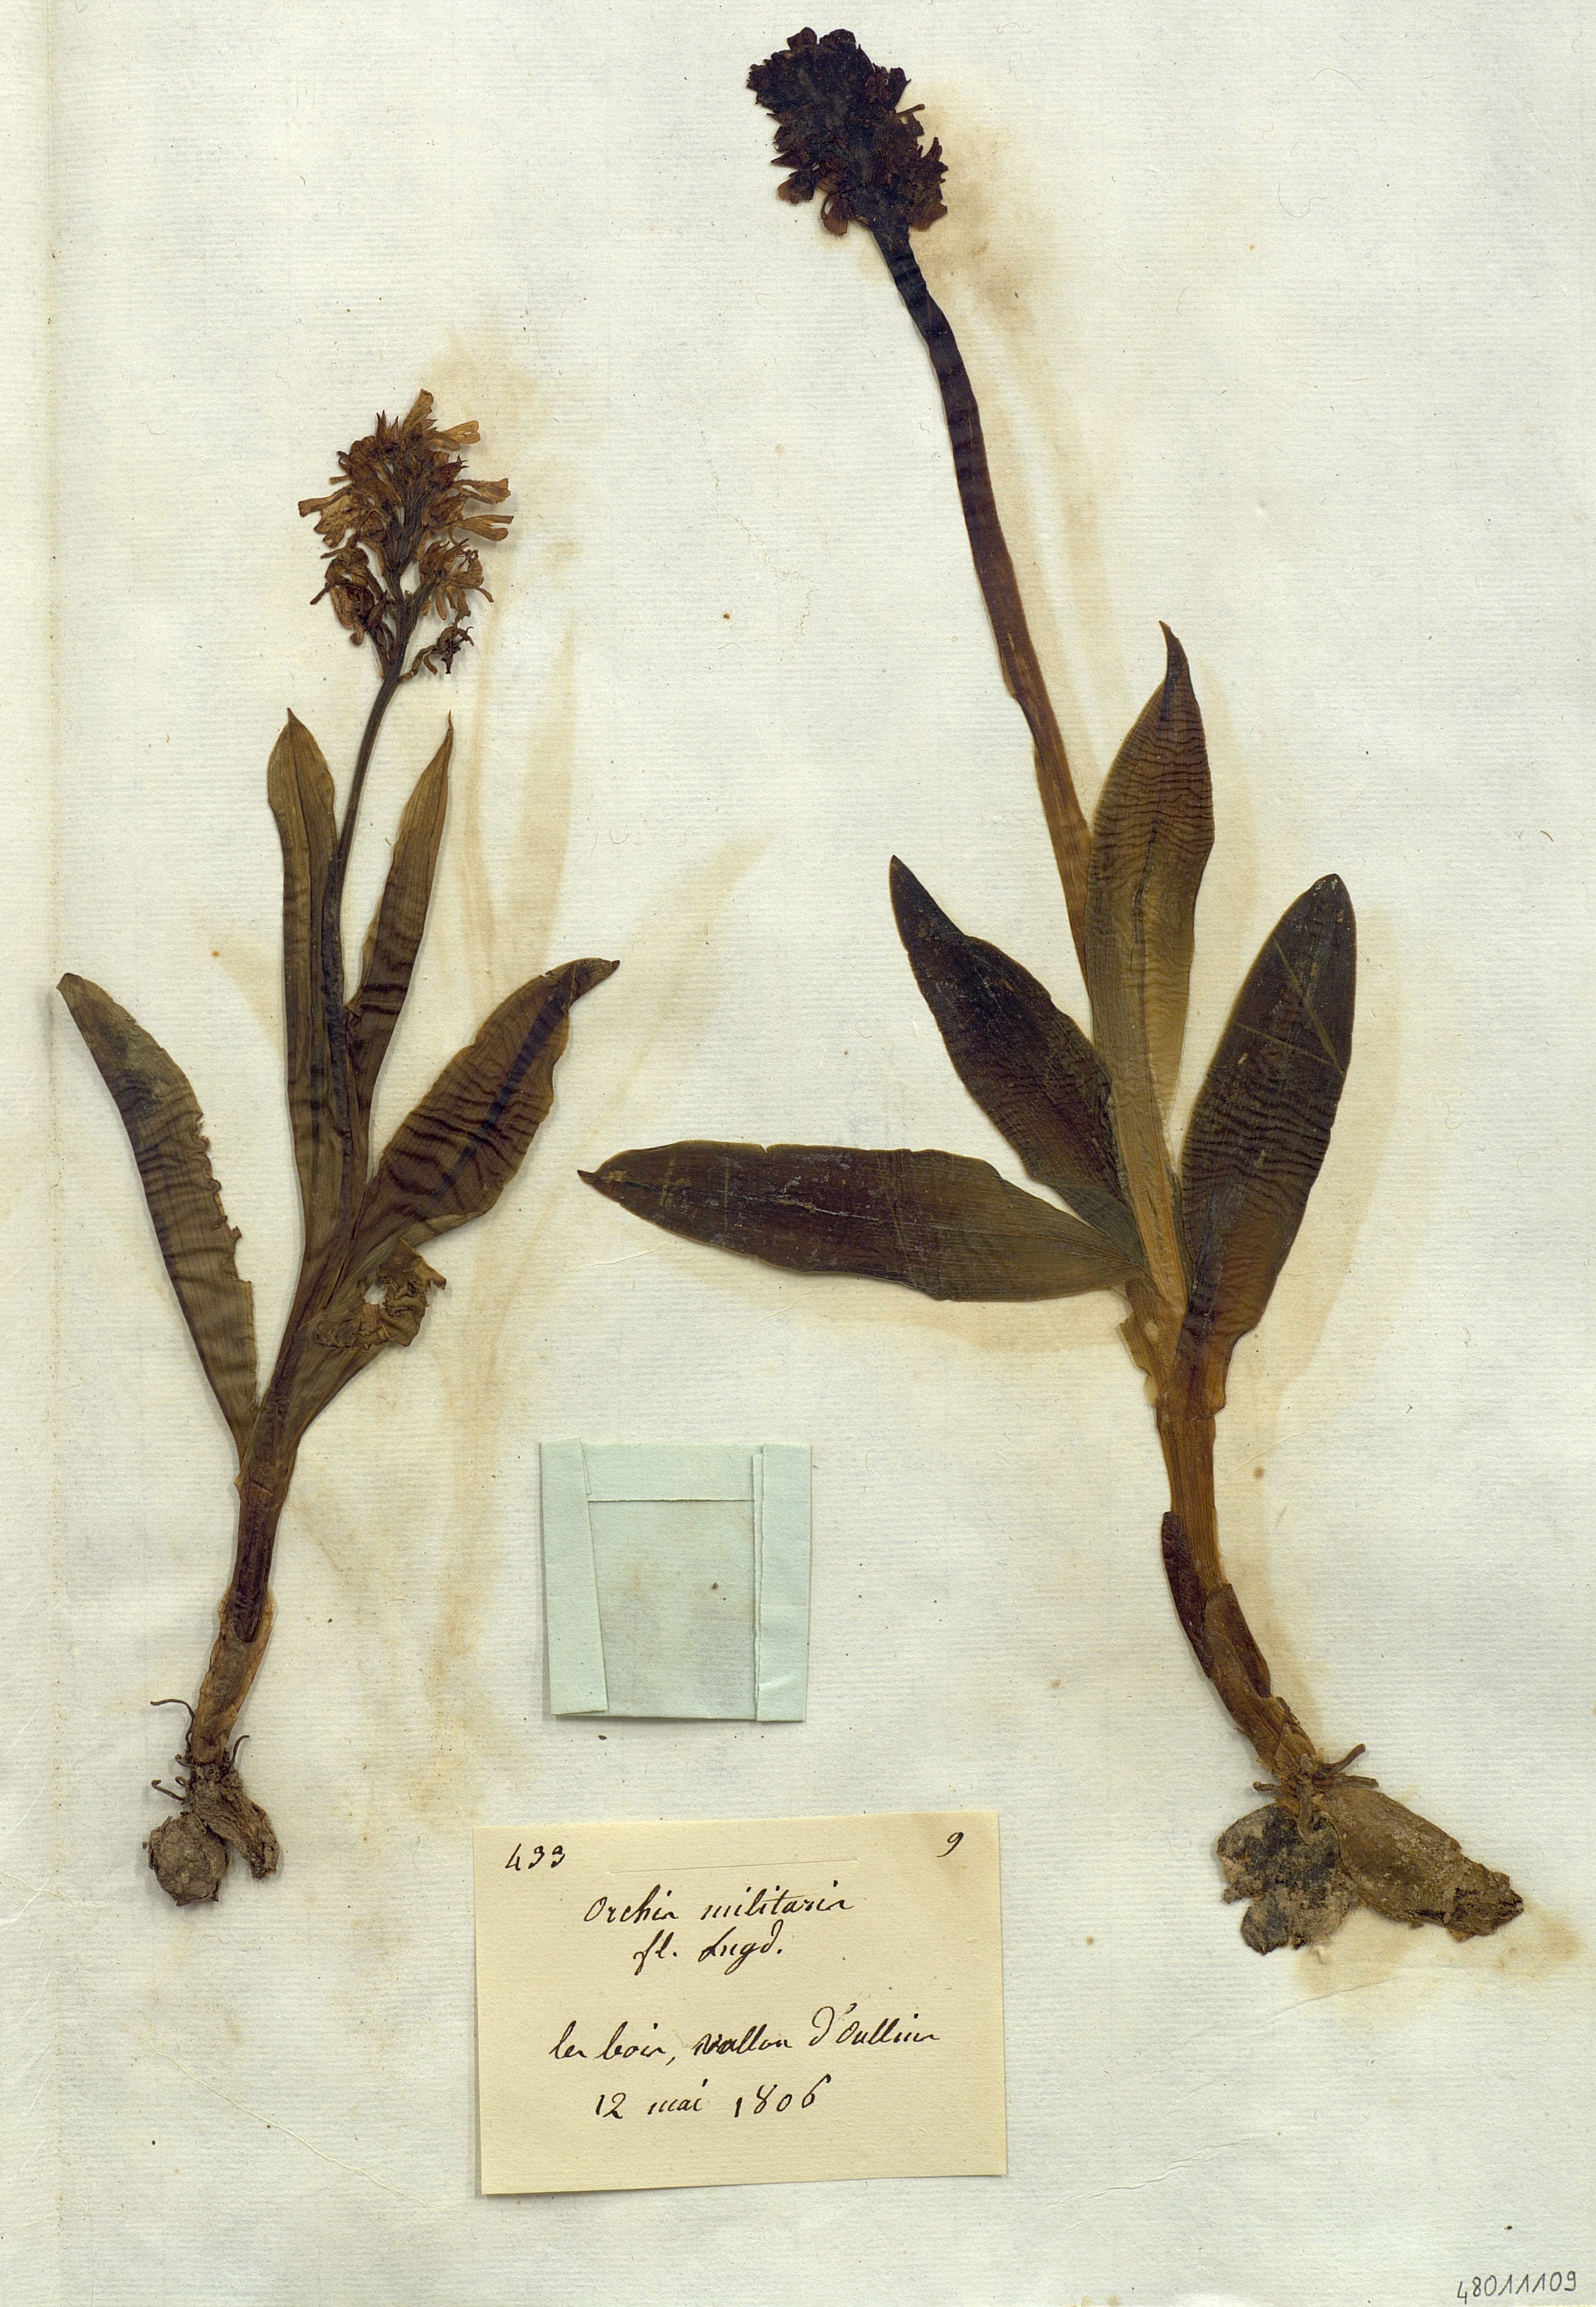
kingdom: Plantae
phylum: Tracheophyta
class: Liliopsida
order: Asparagales
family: Orchidaceae
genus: Orchis
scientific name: Orchis militaris
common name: Military orchid
